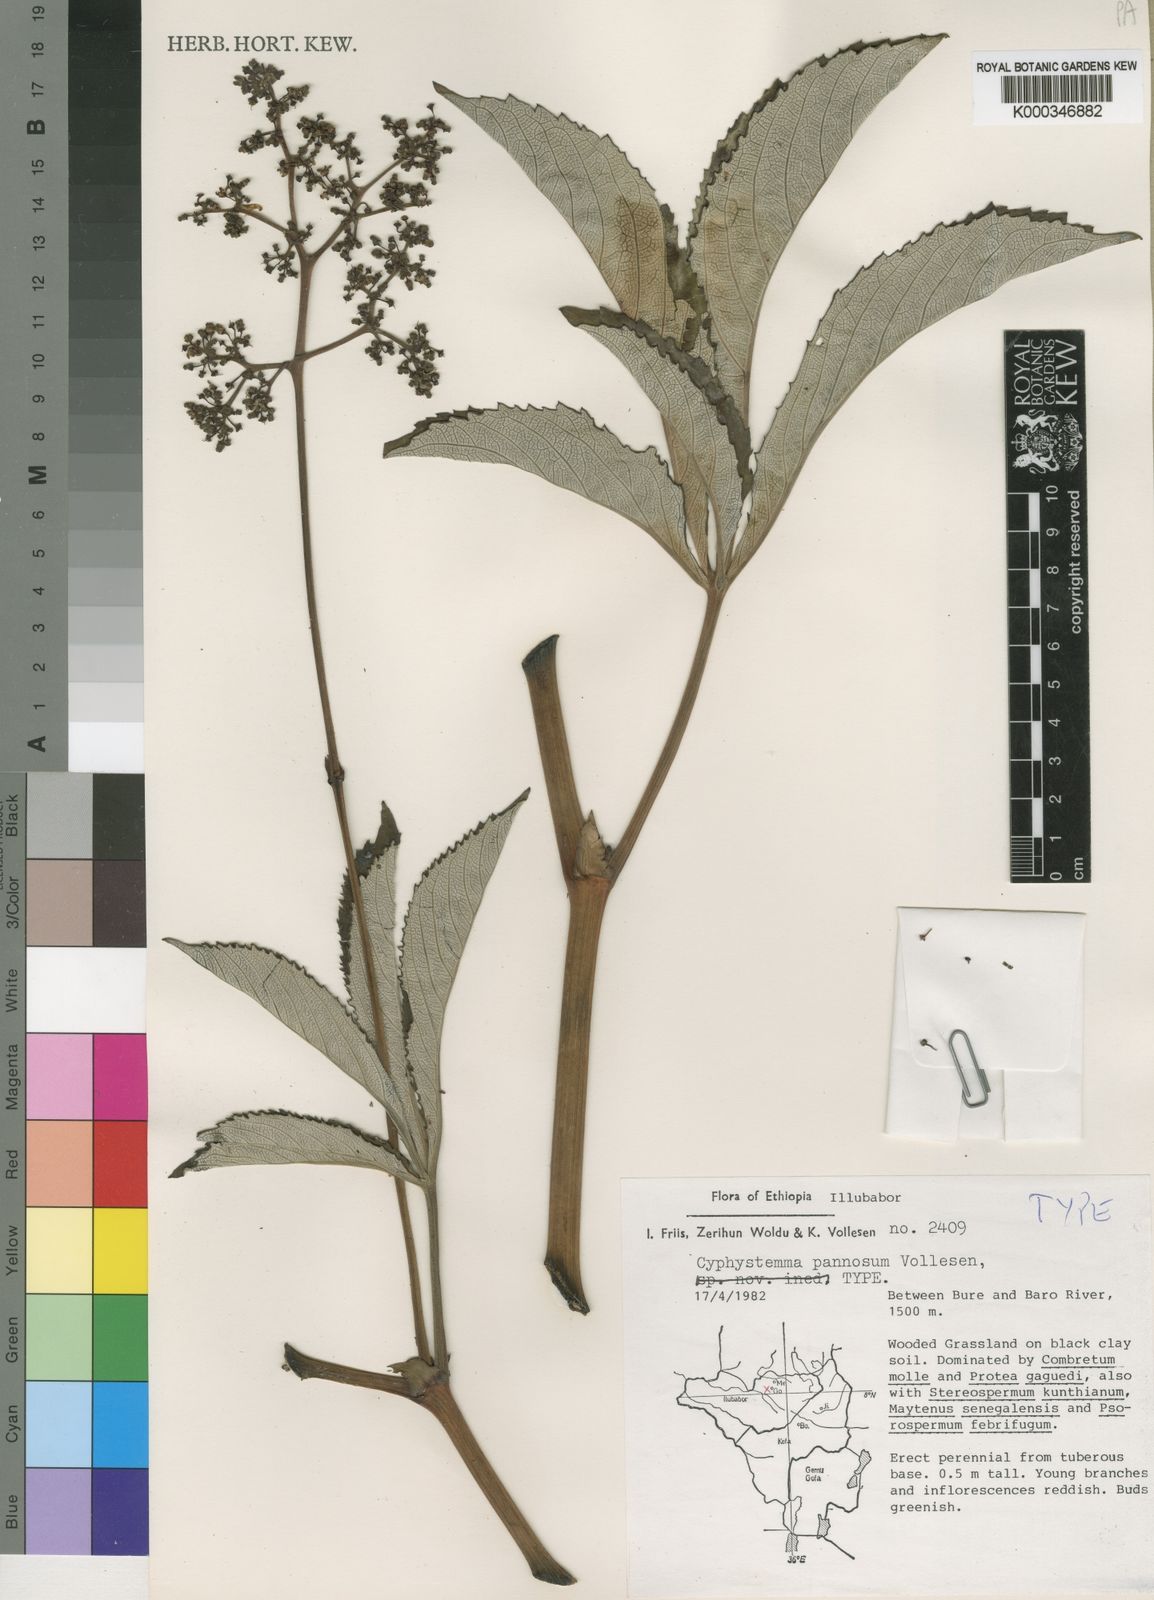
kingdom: Plantae
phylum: Tracheophyta
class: Magnoliopsida
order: Vitales
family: Vitaceae
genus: Cyphostemma
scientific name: Cyphostemma pannosum
